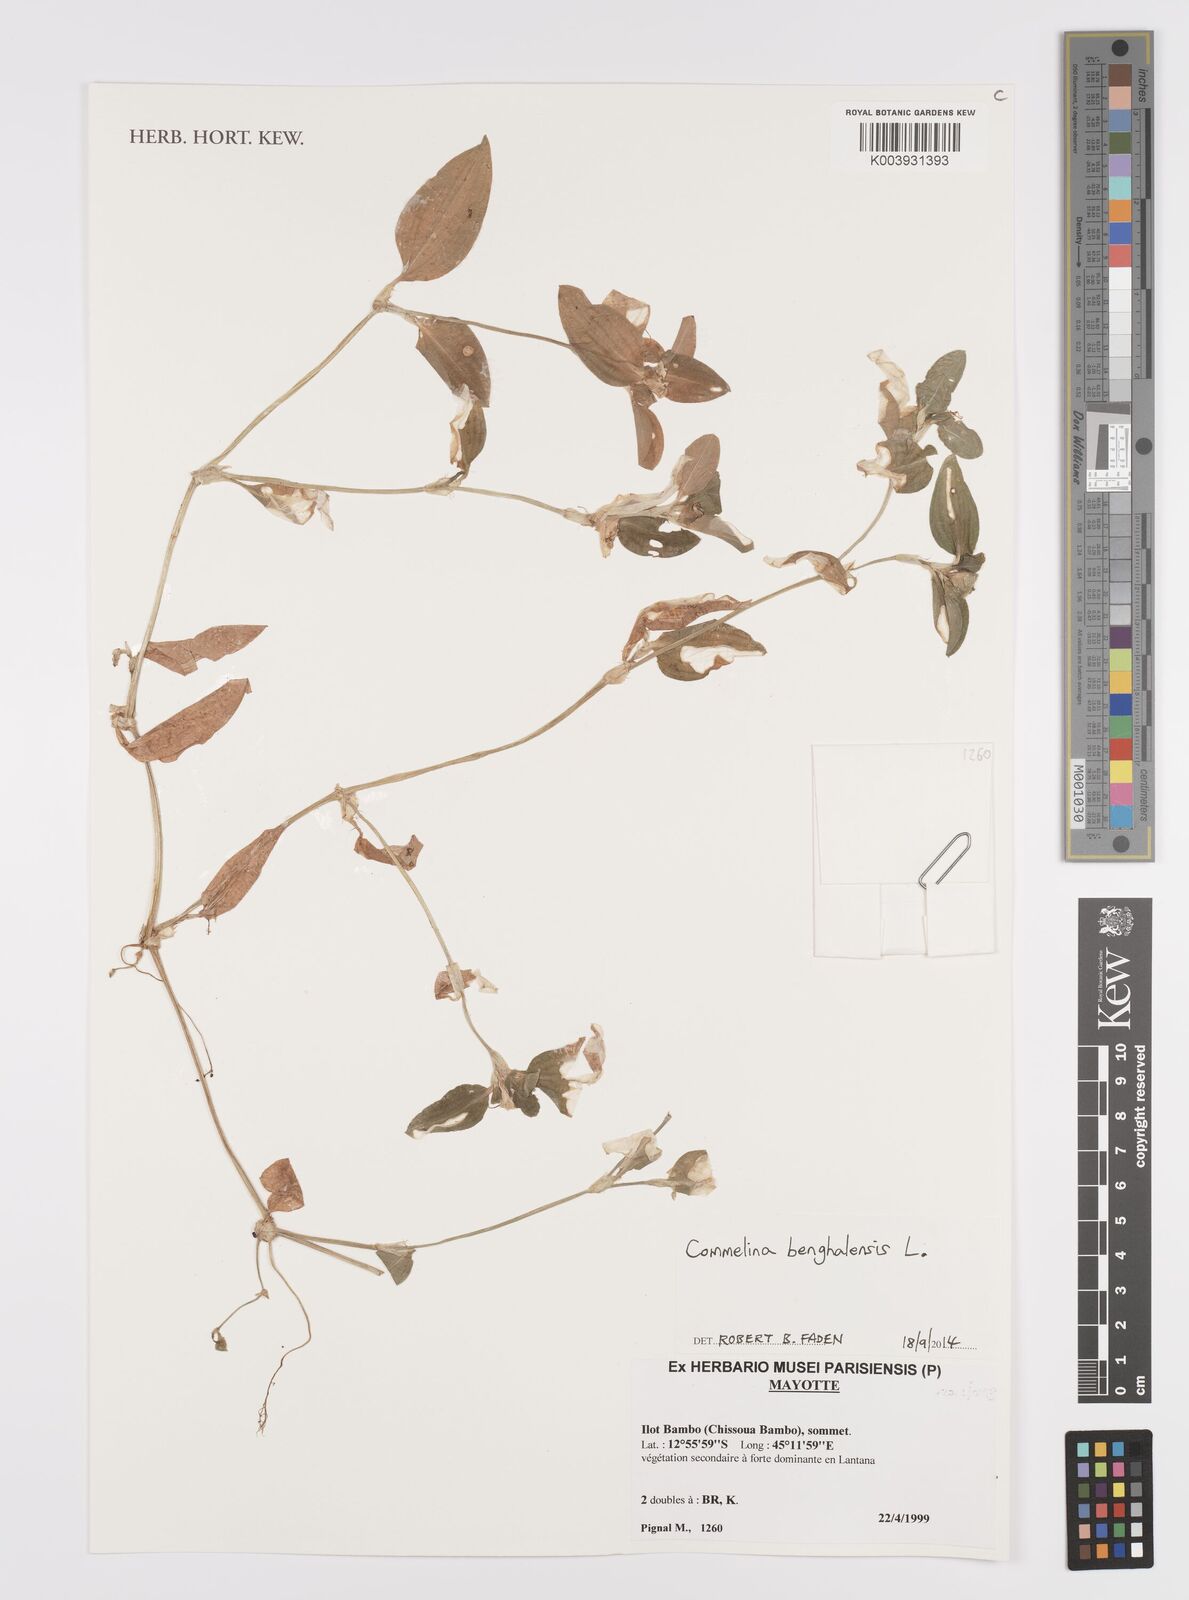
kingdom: Plantae
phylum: Tracheophyta
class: Liliopsida
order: Commelinales
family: Commelinaceae
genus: Commelina
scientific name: Commelina benghalensis
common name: Jio
